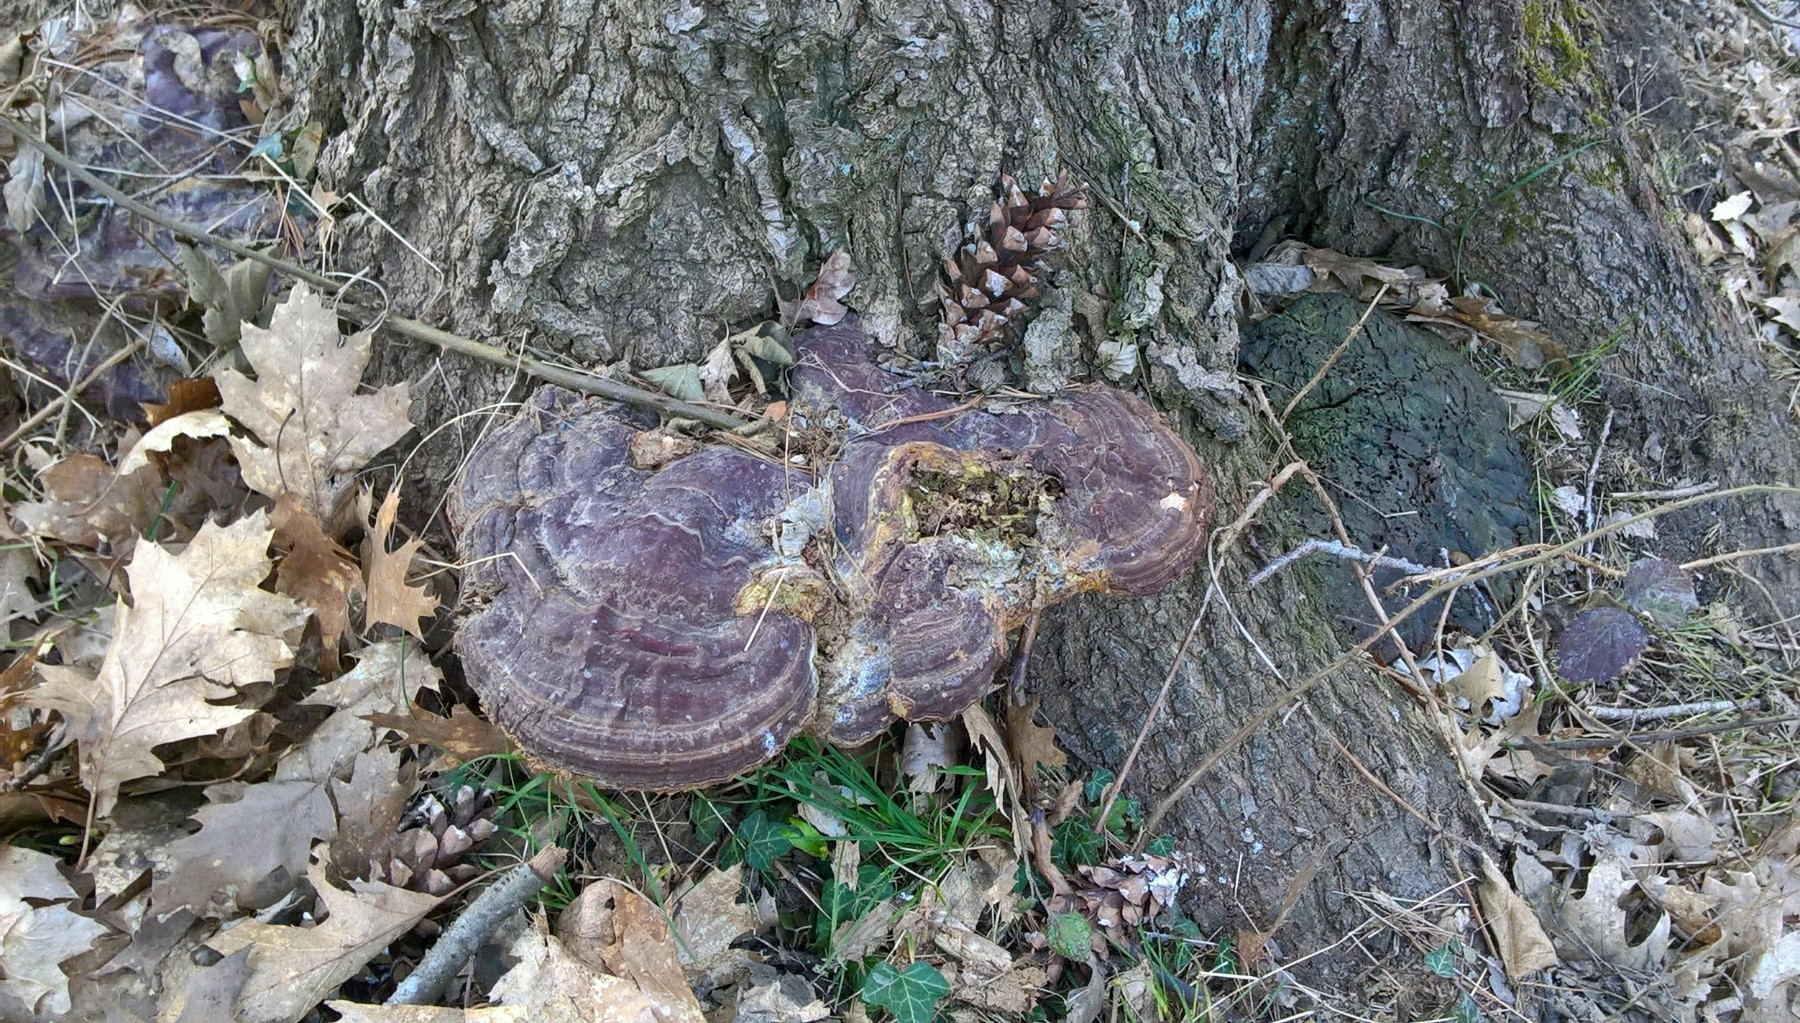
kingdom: Fungi
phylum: Basidiomycota
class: Agaricomycetes
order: Polyporales
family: Polyporaceae
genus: Ganoderma
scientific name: Ganoderma resinaceum
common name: gyldenbrun lakporesvamp
